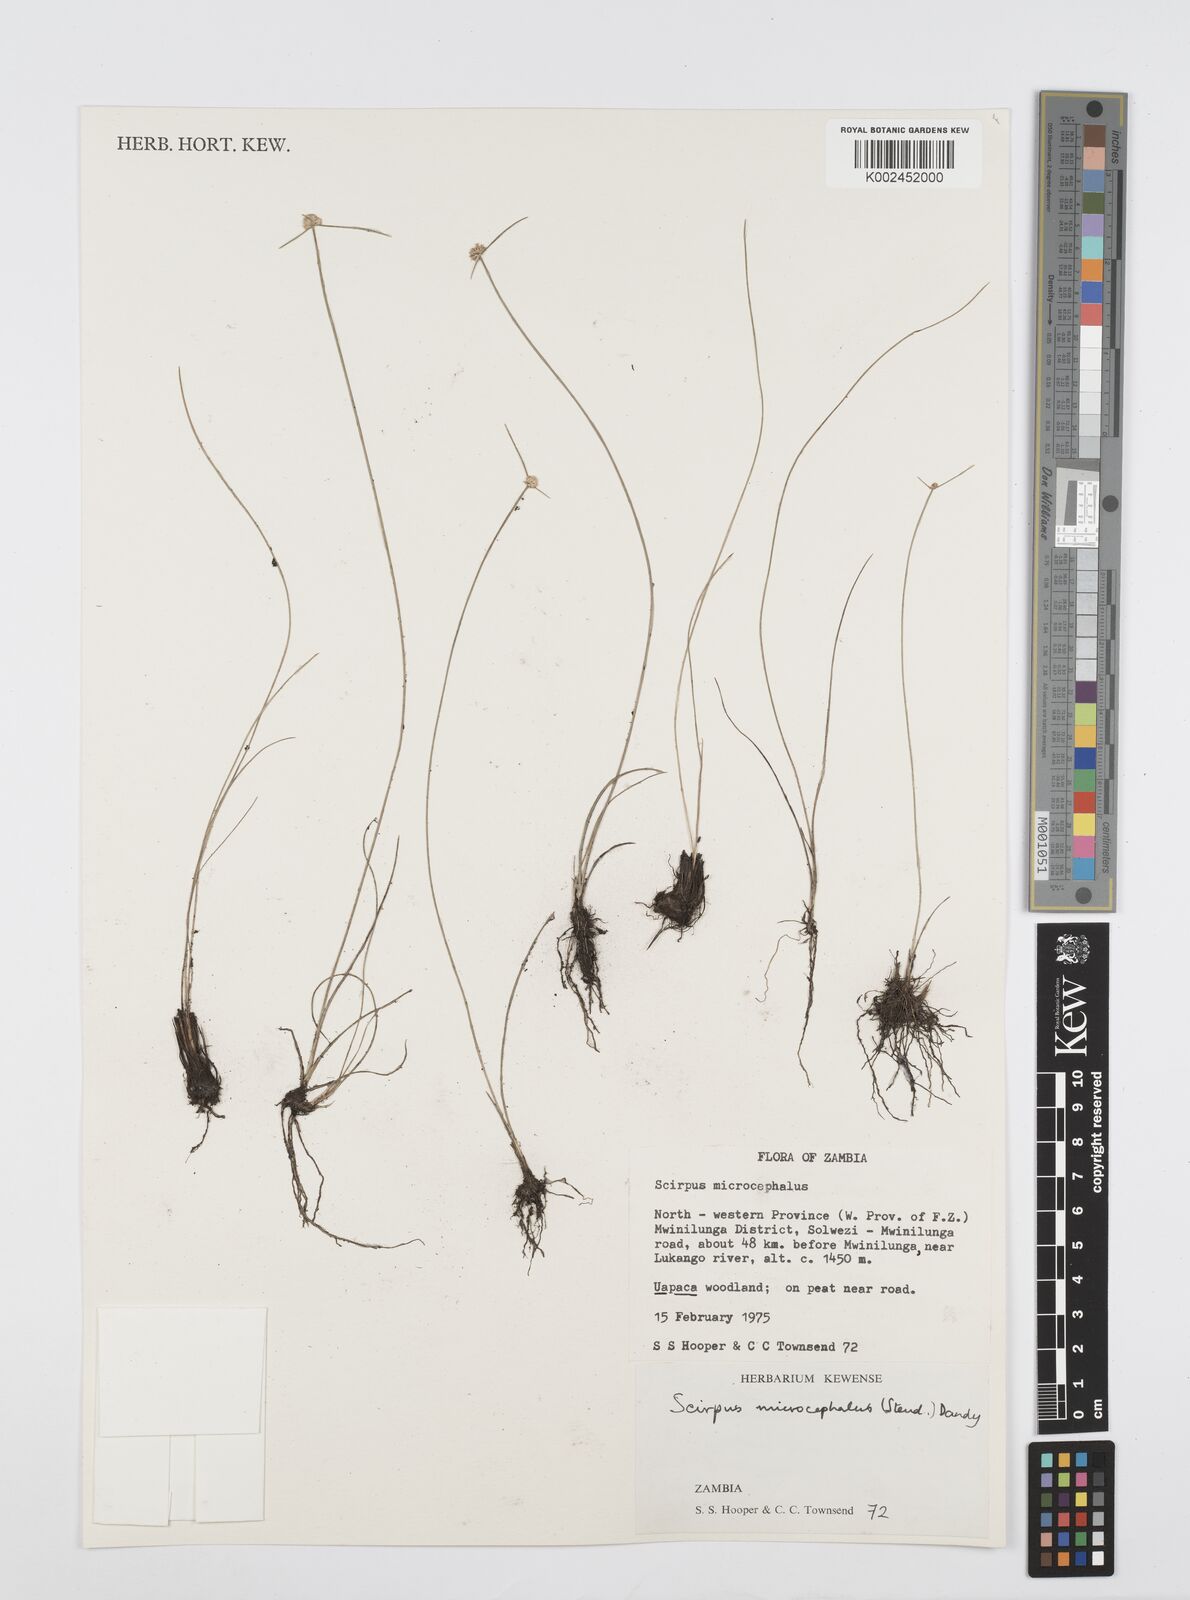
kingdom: Plantae
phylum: Tracheophyta
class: Liliopsida
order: Poales
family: Cyperaceae
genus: Cyperus
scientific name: Cyperus microcephalus
